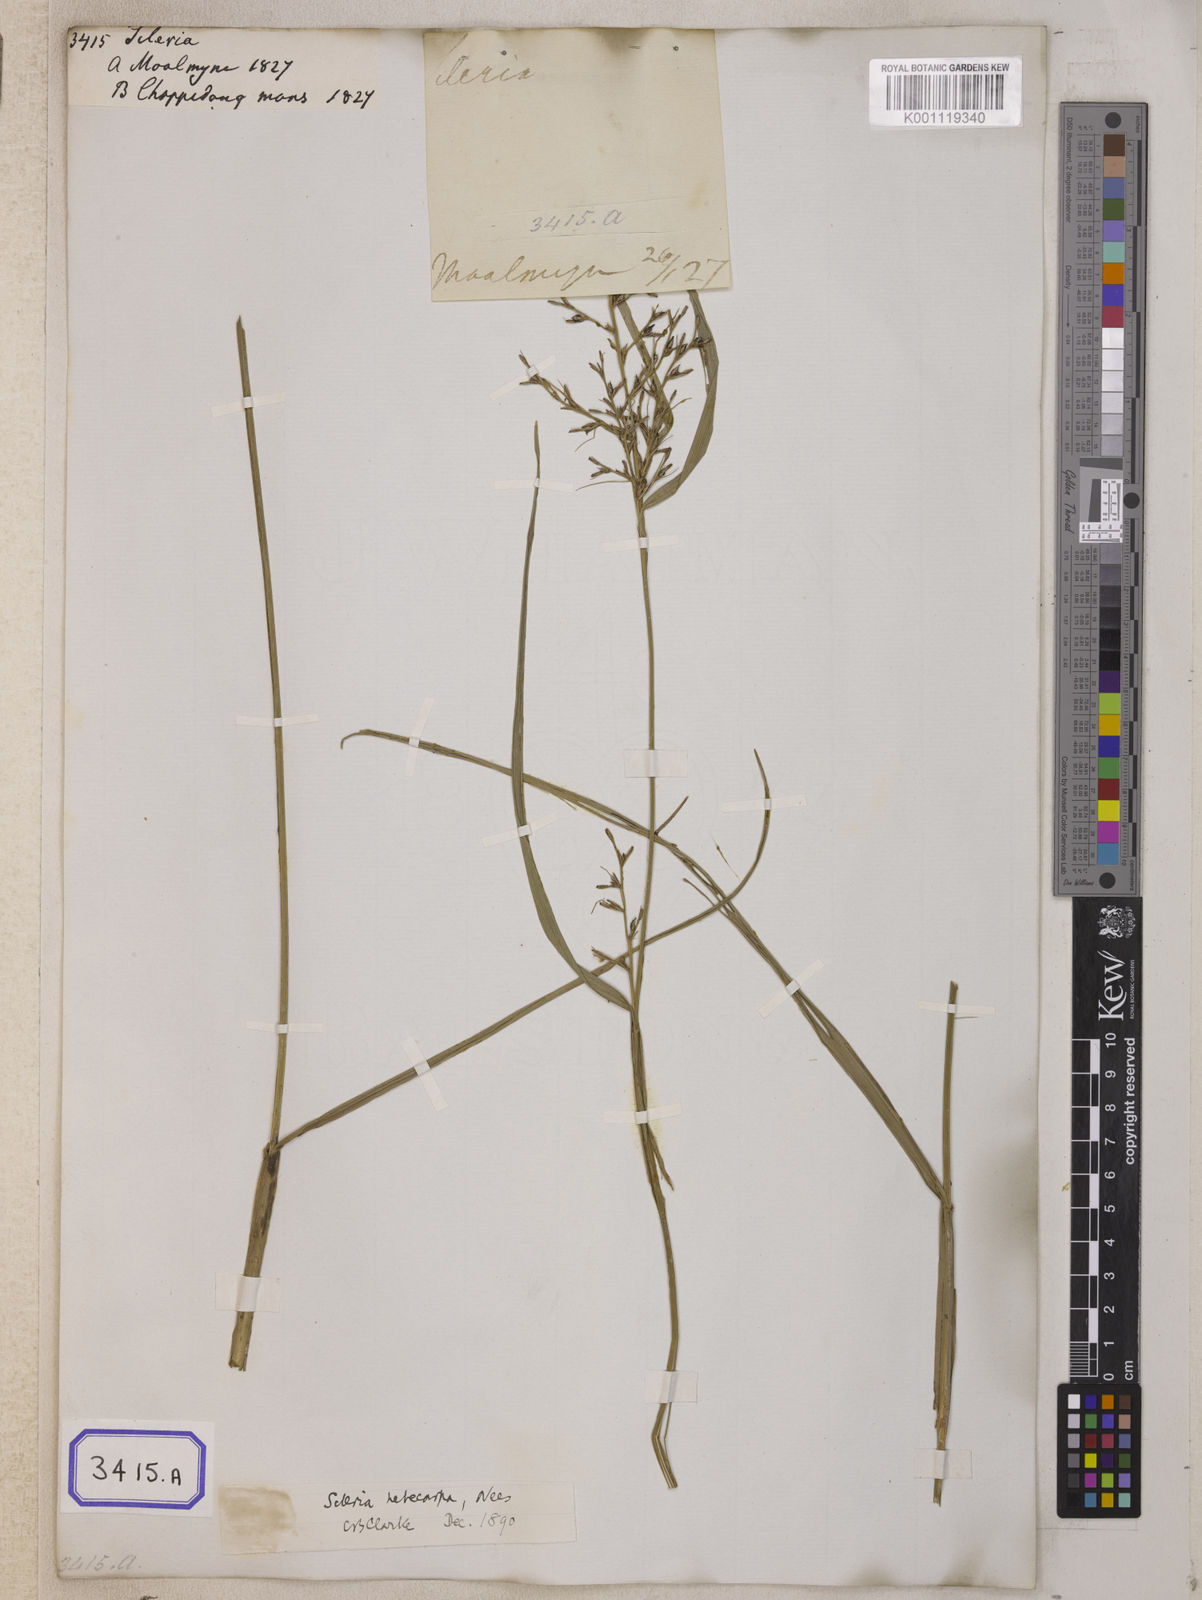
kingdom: Plantae
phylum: Tracheophyta
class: Liliopsida
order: Poales
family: Cyperaceae
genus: Scleria
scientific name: Scleria
